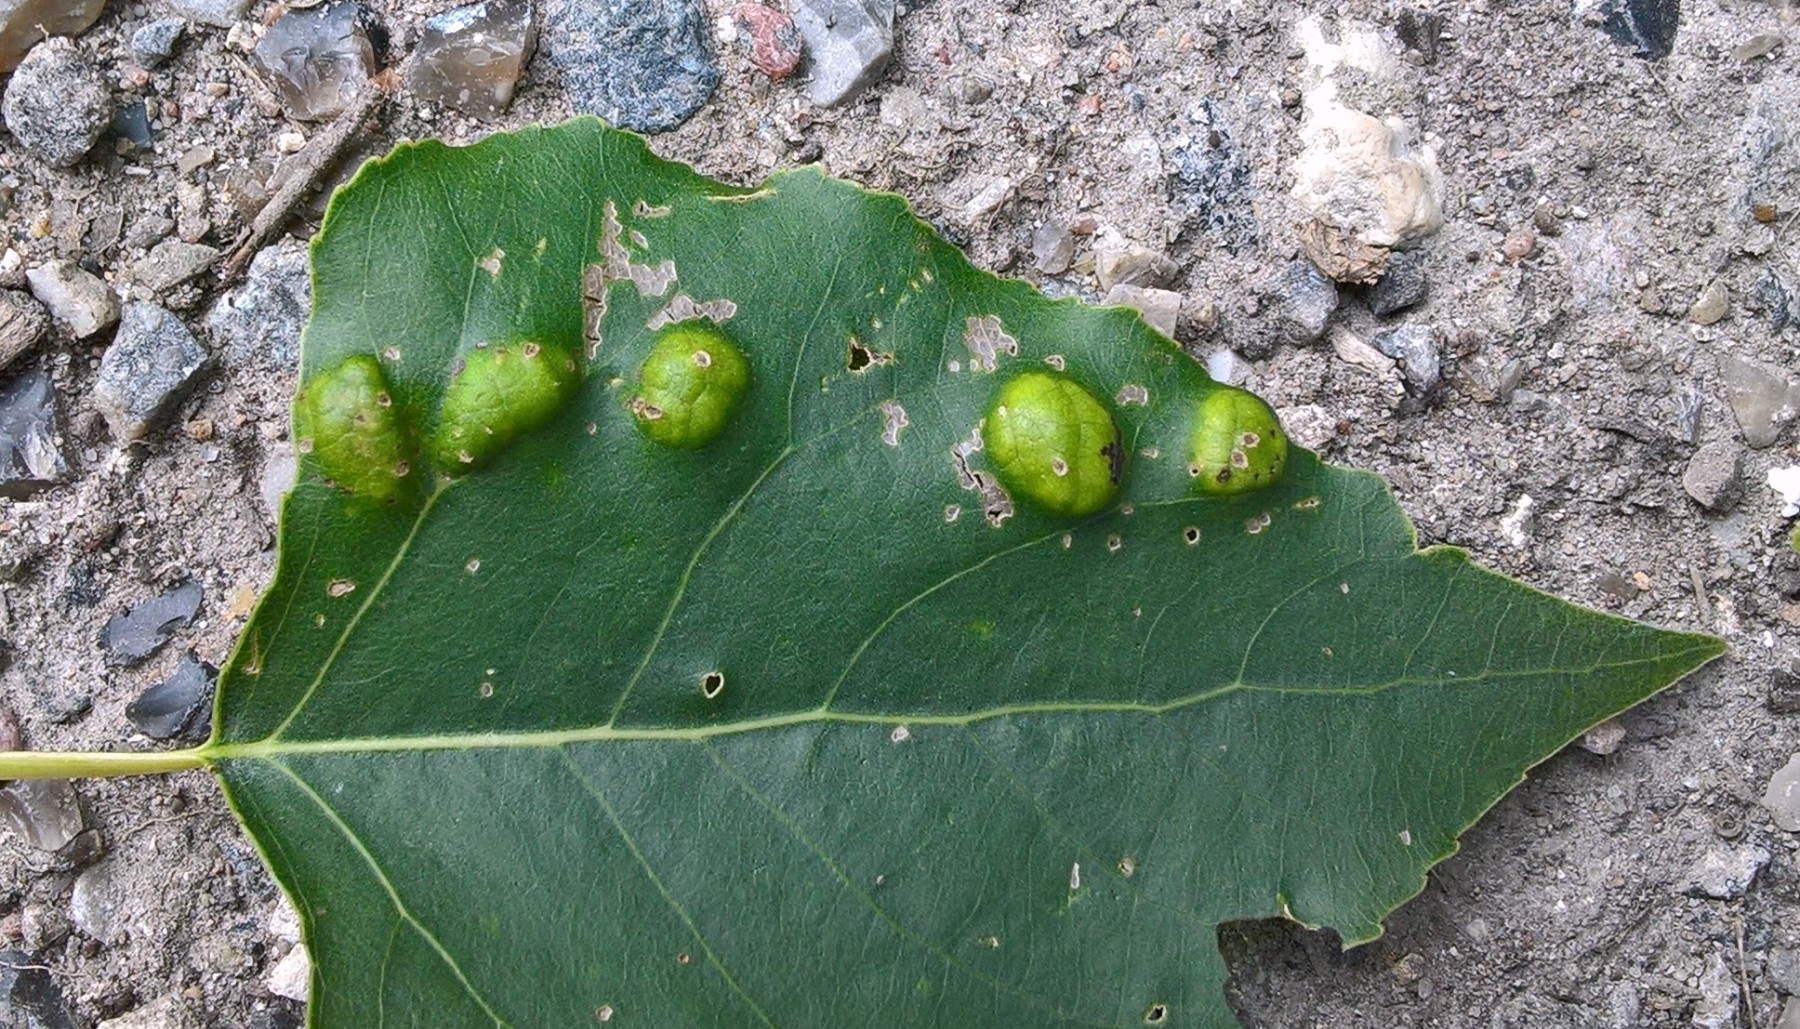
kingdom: Fungi
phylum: Ascomycota
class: Taphrinomycetes
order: Taphrinales
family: Taphrinaceae
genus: Taphrina
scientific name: Taphrina populina
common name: Poplar leaf curl
